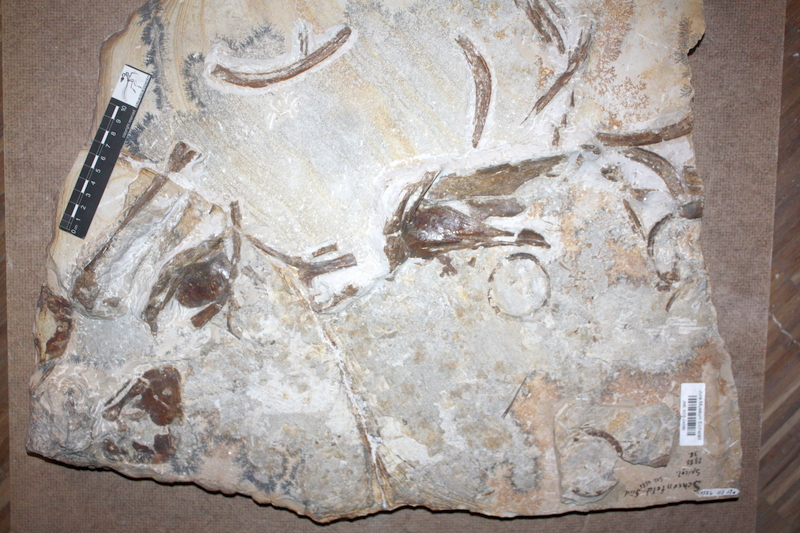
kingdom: Animalia
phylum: Chordata
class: Coelacanthi
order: Coelacanthiformes
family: Coelacanthidae
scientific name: Coelacanthidae
